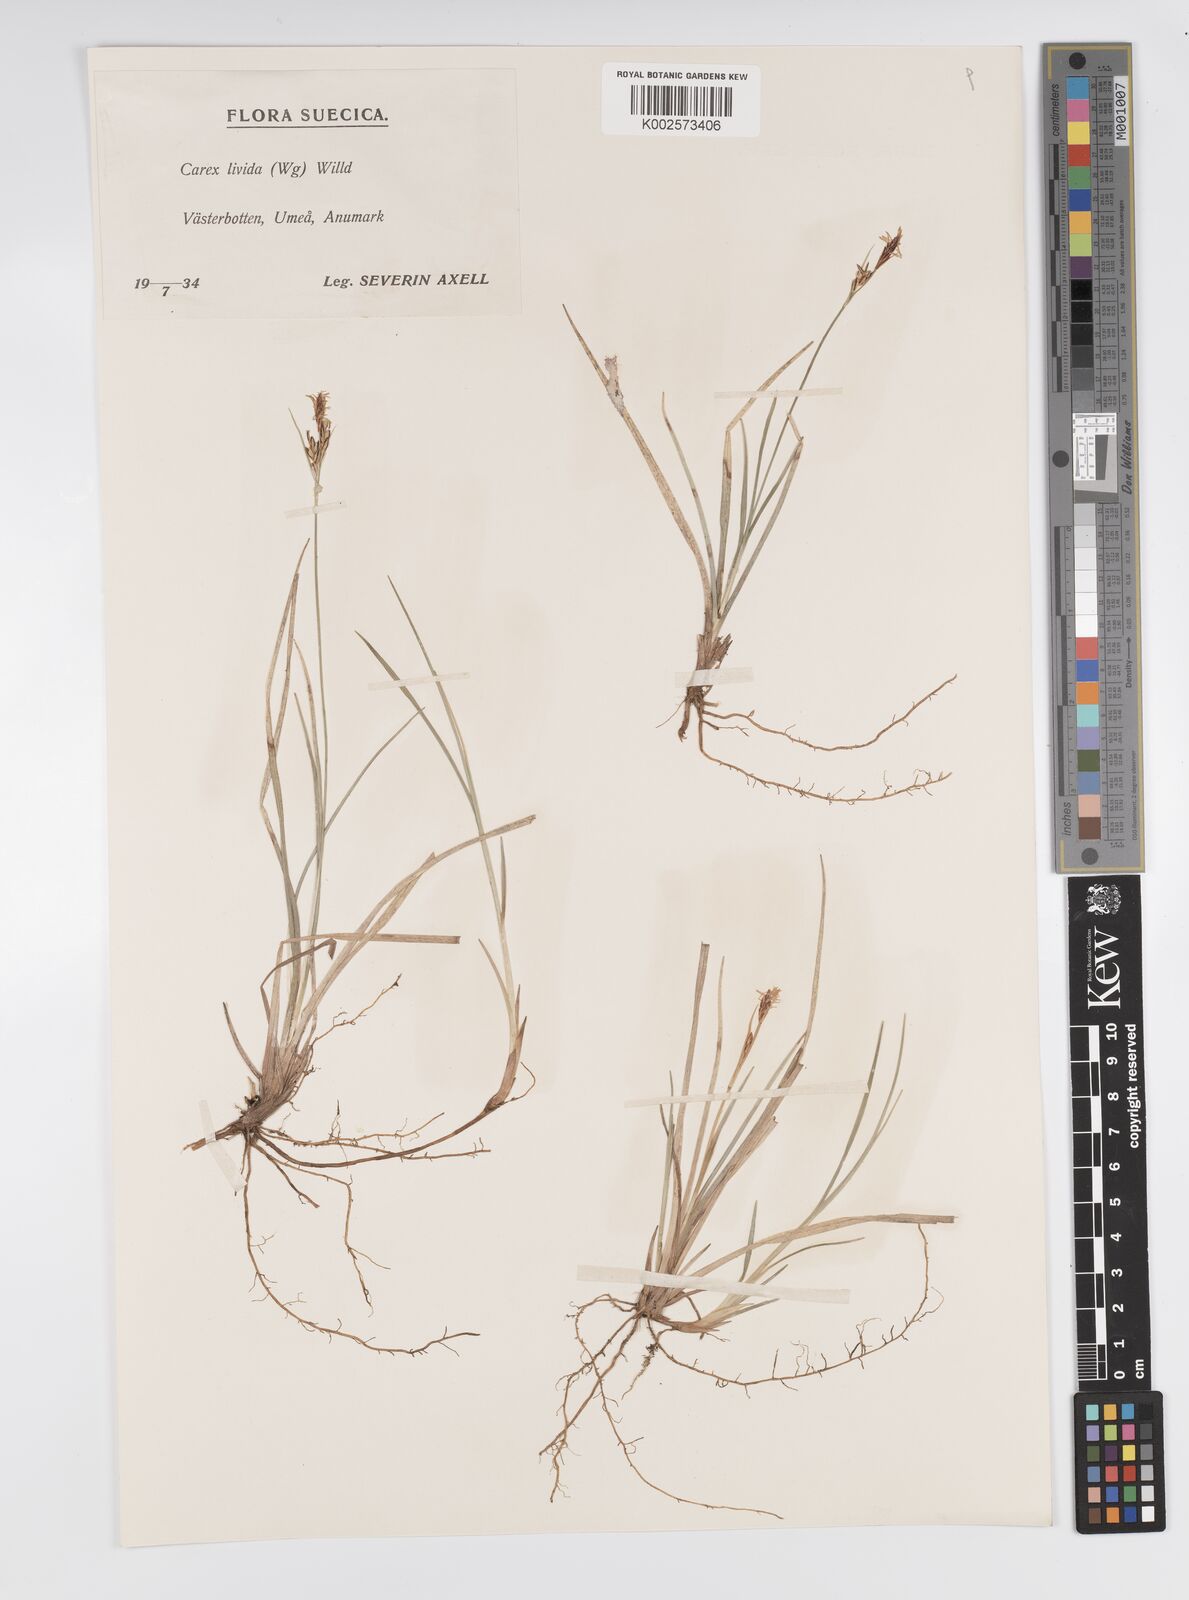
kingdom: Plantae
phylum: Tracheophyta
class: Liliopsida
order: Poales
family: Cyperaceae
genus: Carex
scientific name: Carex livida
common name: Livid sedge
